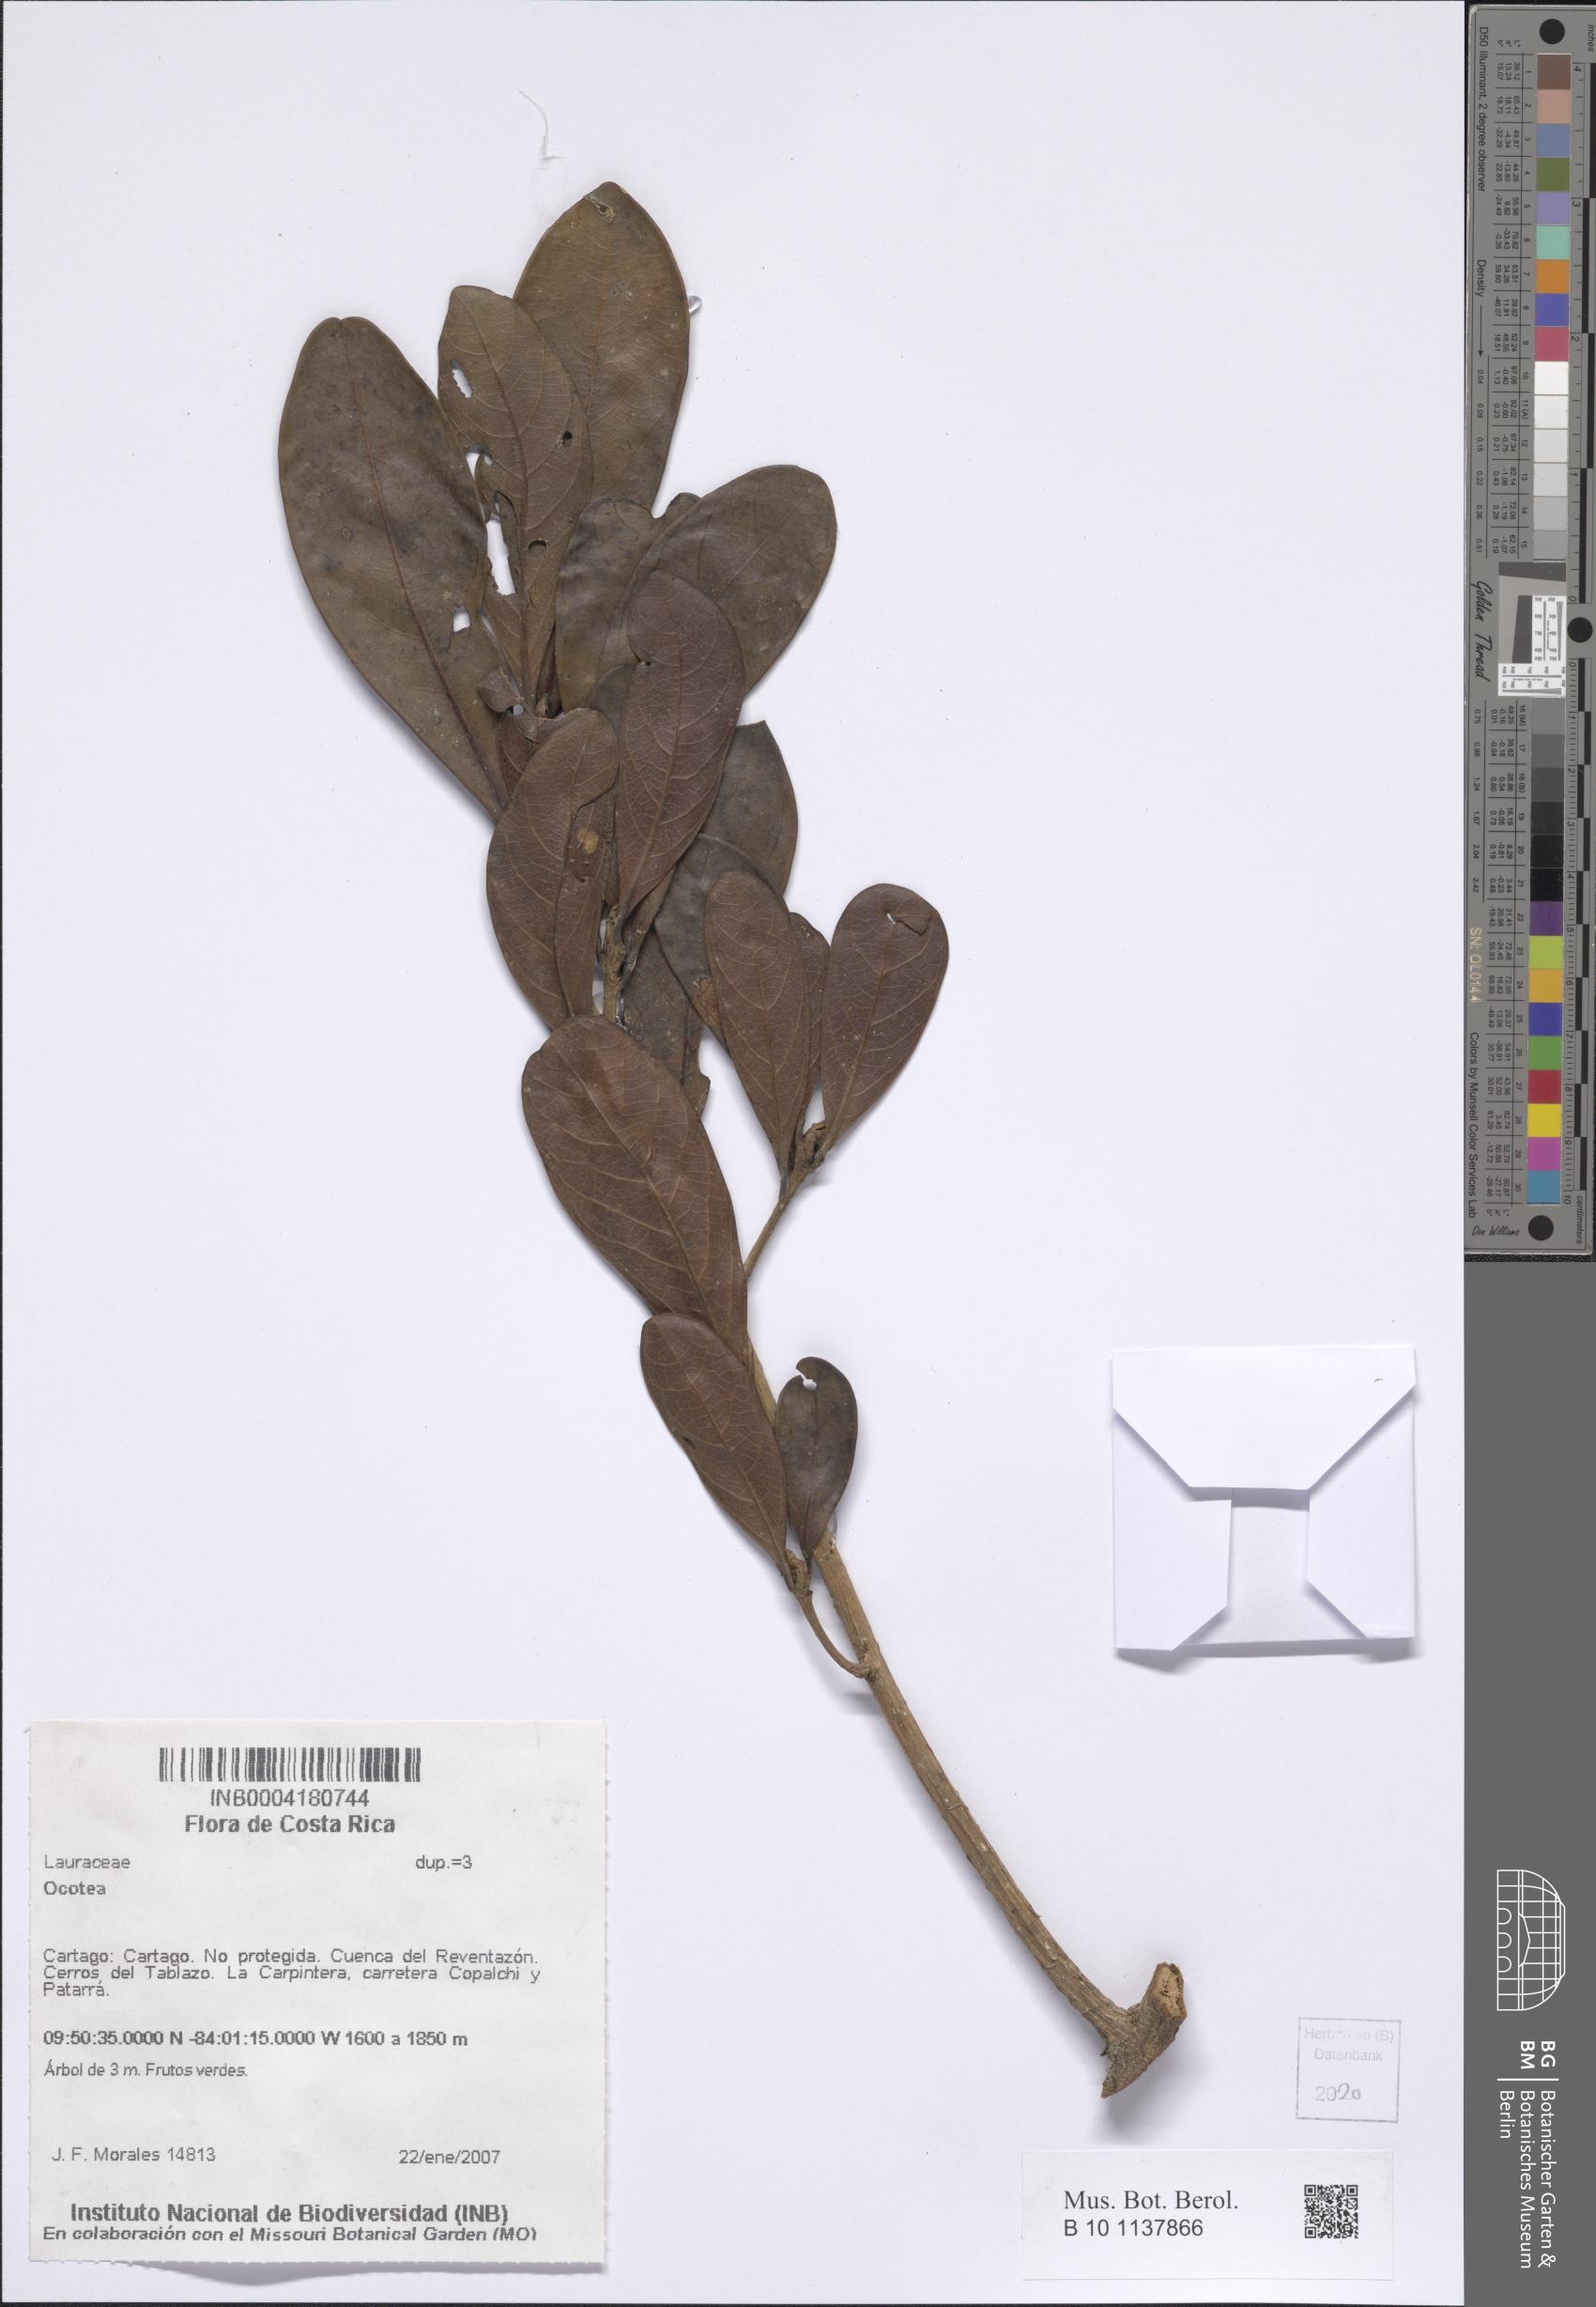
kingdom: Plantae
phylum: Tracheophyta
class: Magnoliopsida
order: Laurales
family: Lauraceae
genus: Ocotea
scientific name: Ocotea
